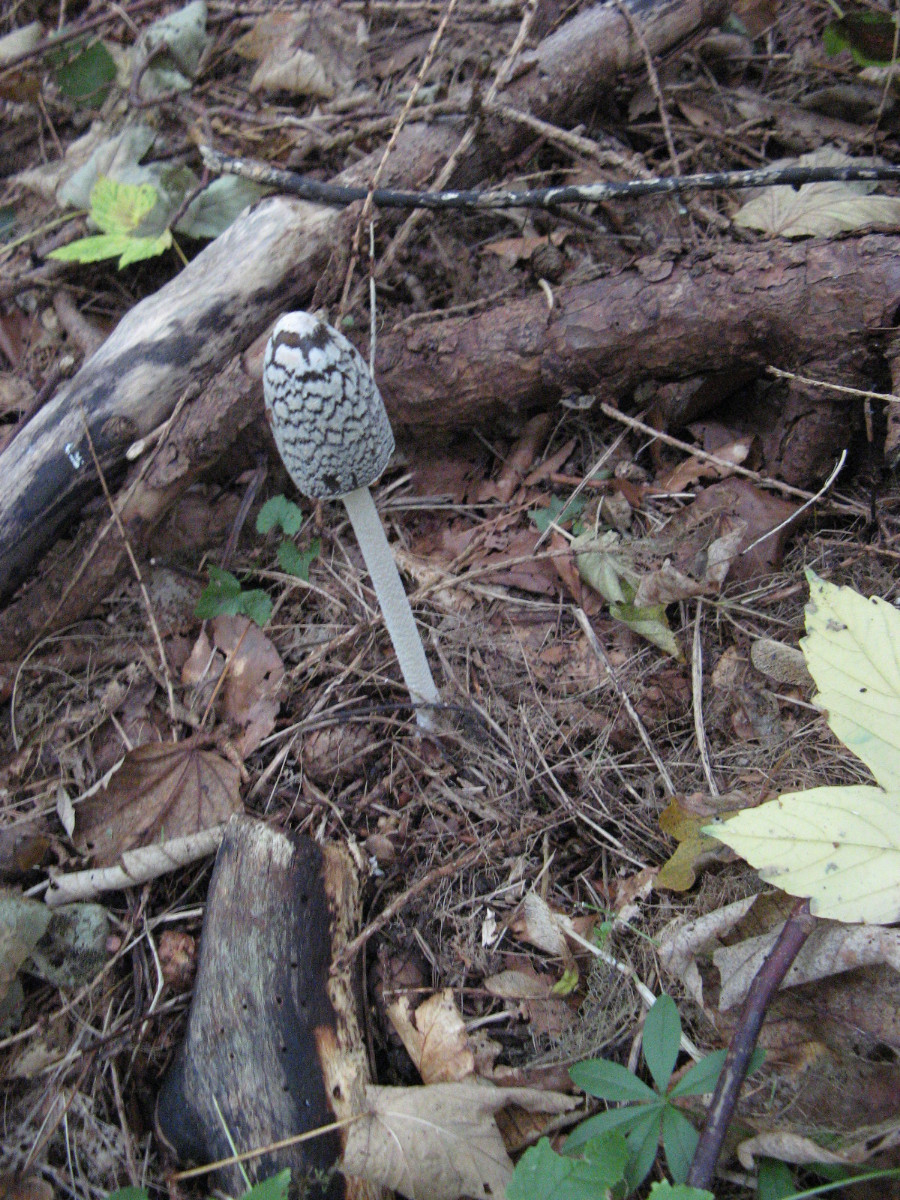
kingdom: Fungi
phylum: Basidiomycota
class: Agaricomycetes
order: Agaricales
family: Psathyrellaceae
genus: Coprinopsis
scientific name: Coprinopsis picacea
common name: skade-blækhat
